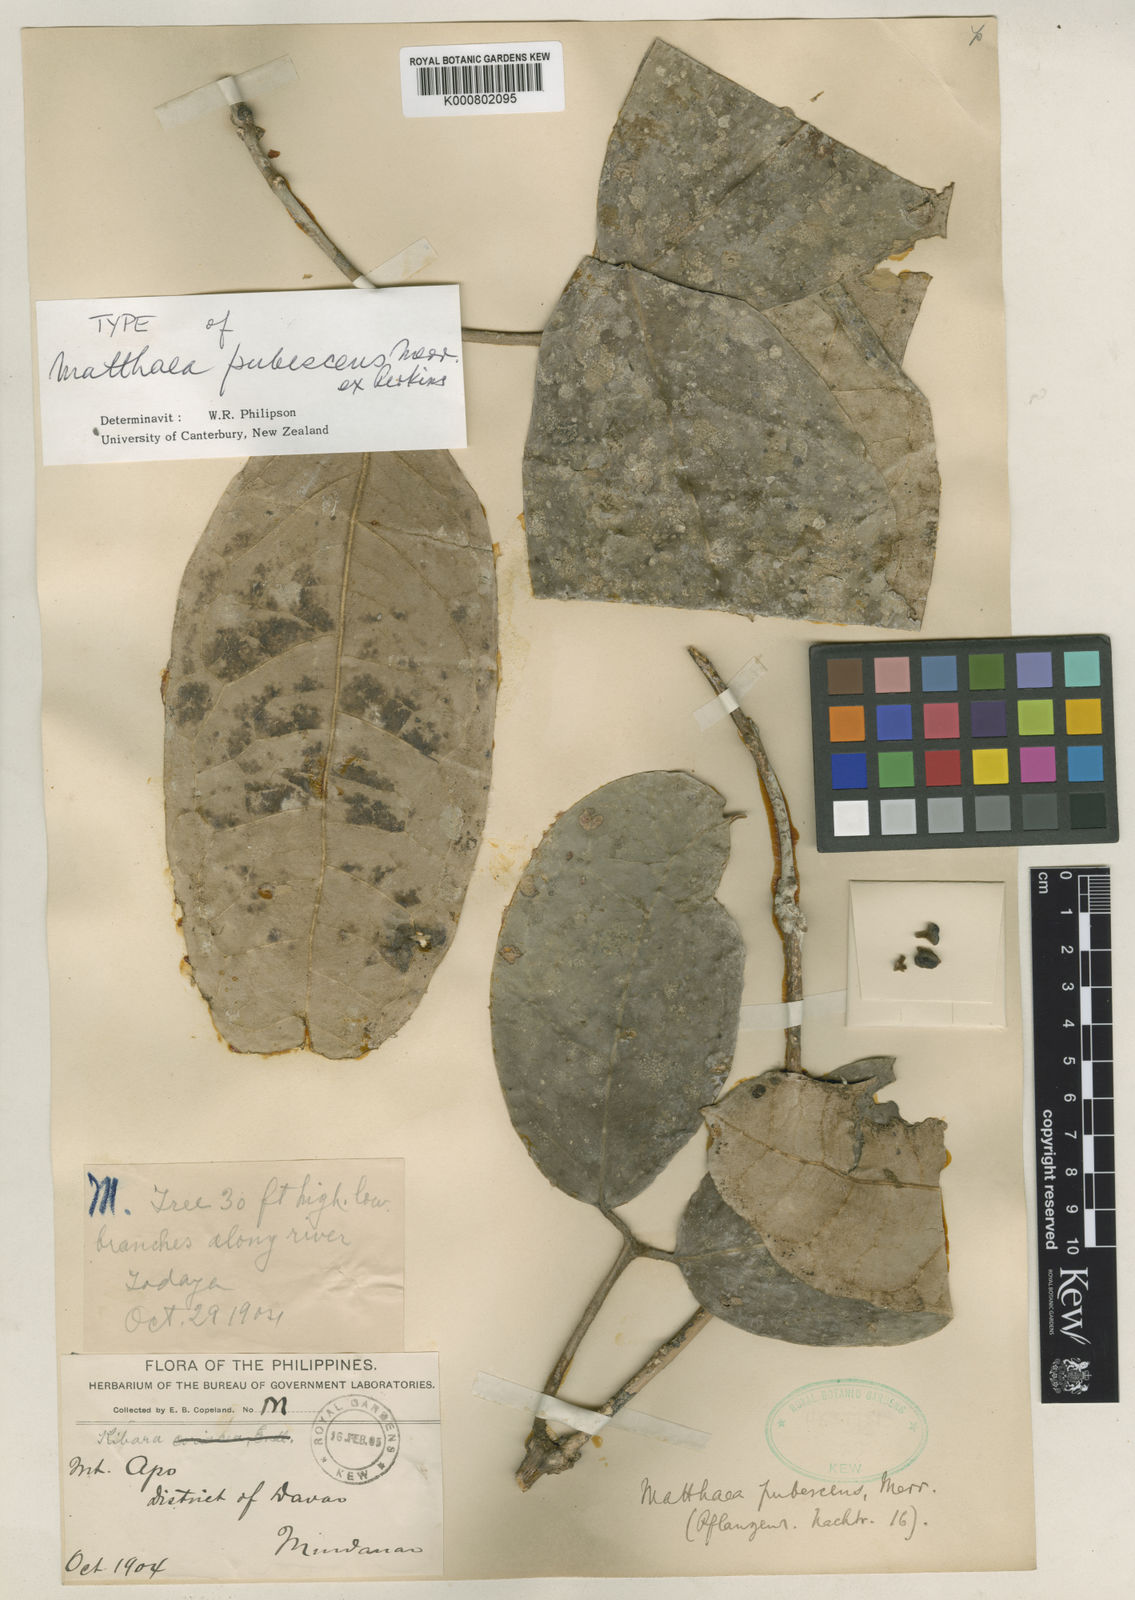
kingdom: Plantae
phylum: Tracheophyta
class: Magnoliopsida
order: Laurales
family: Monimiaceae
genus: Matthaea
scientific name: Matthaea pubescens
